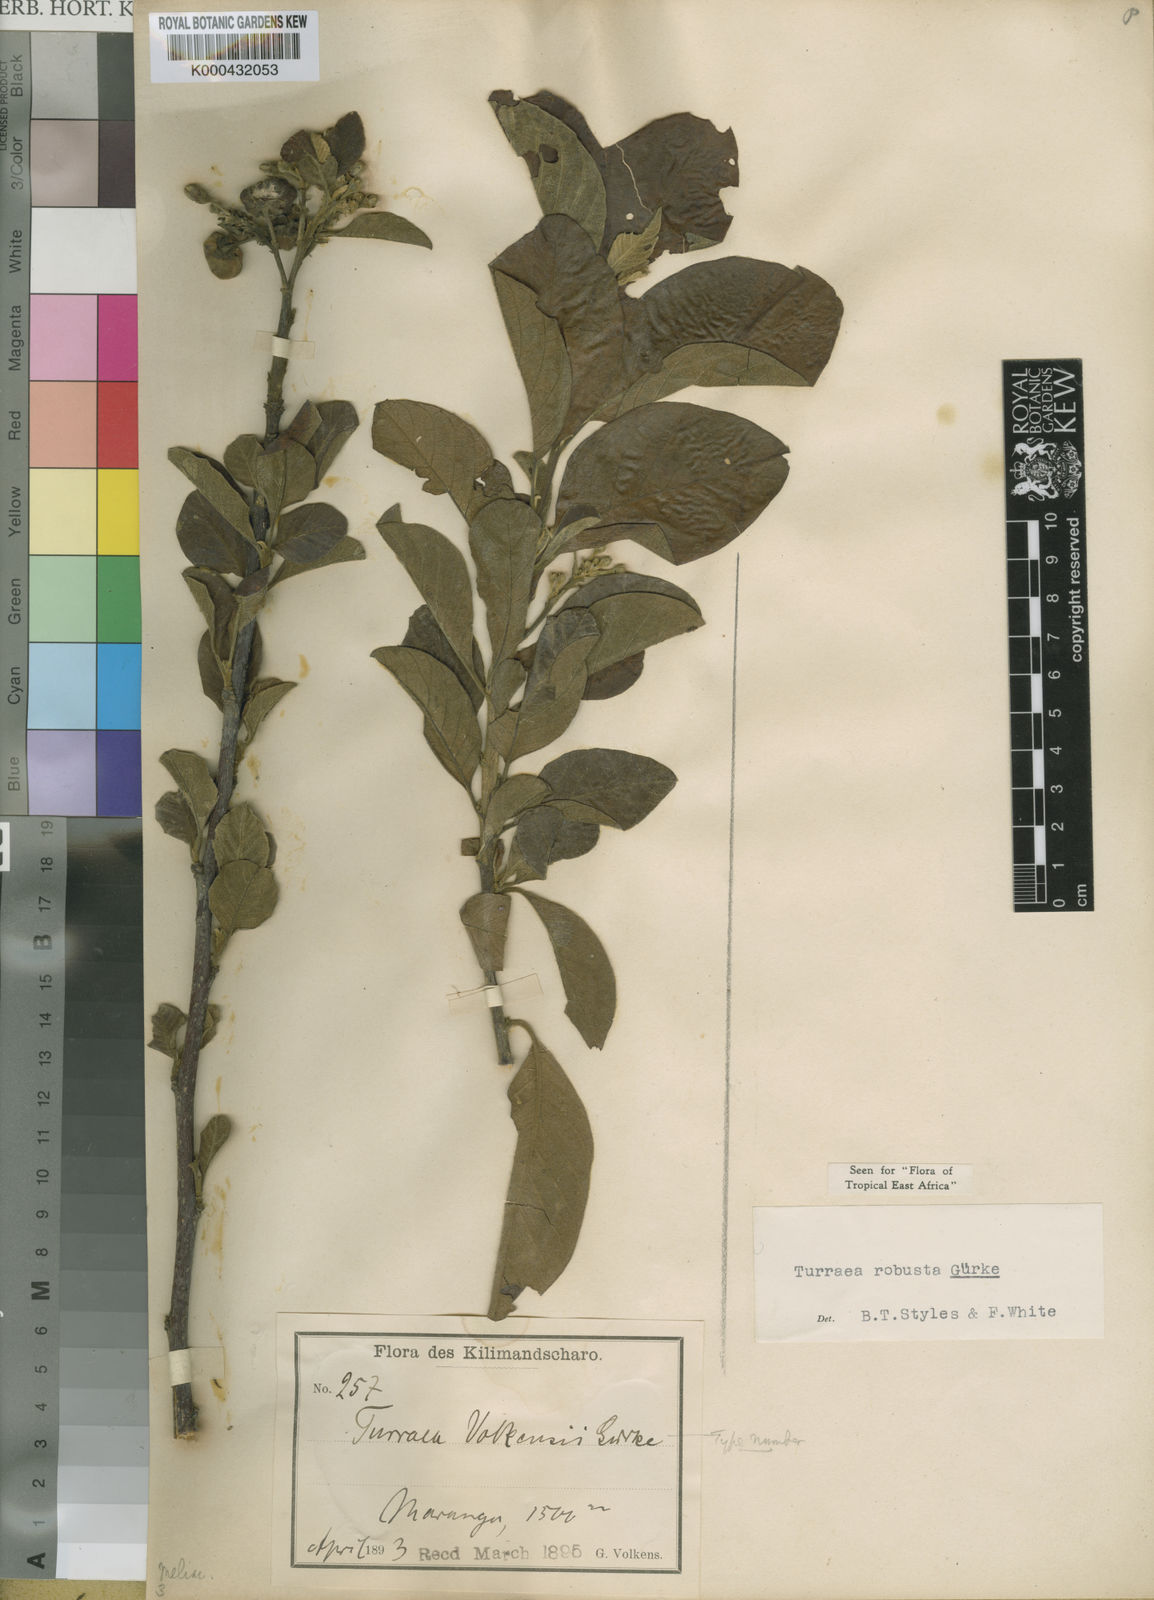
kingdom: Plantae
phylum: Tracheophyta
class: Magnoliopsida
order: Sapindales
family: Meliaceae
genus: Turraea
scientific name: Turraea
